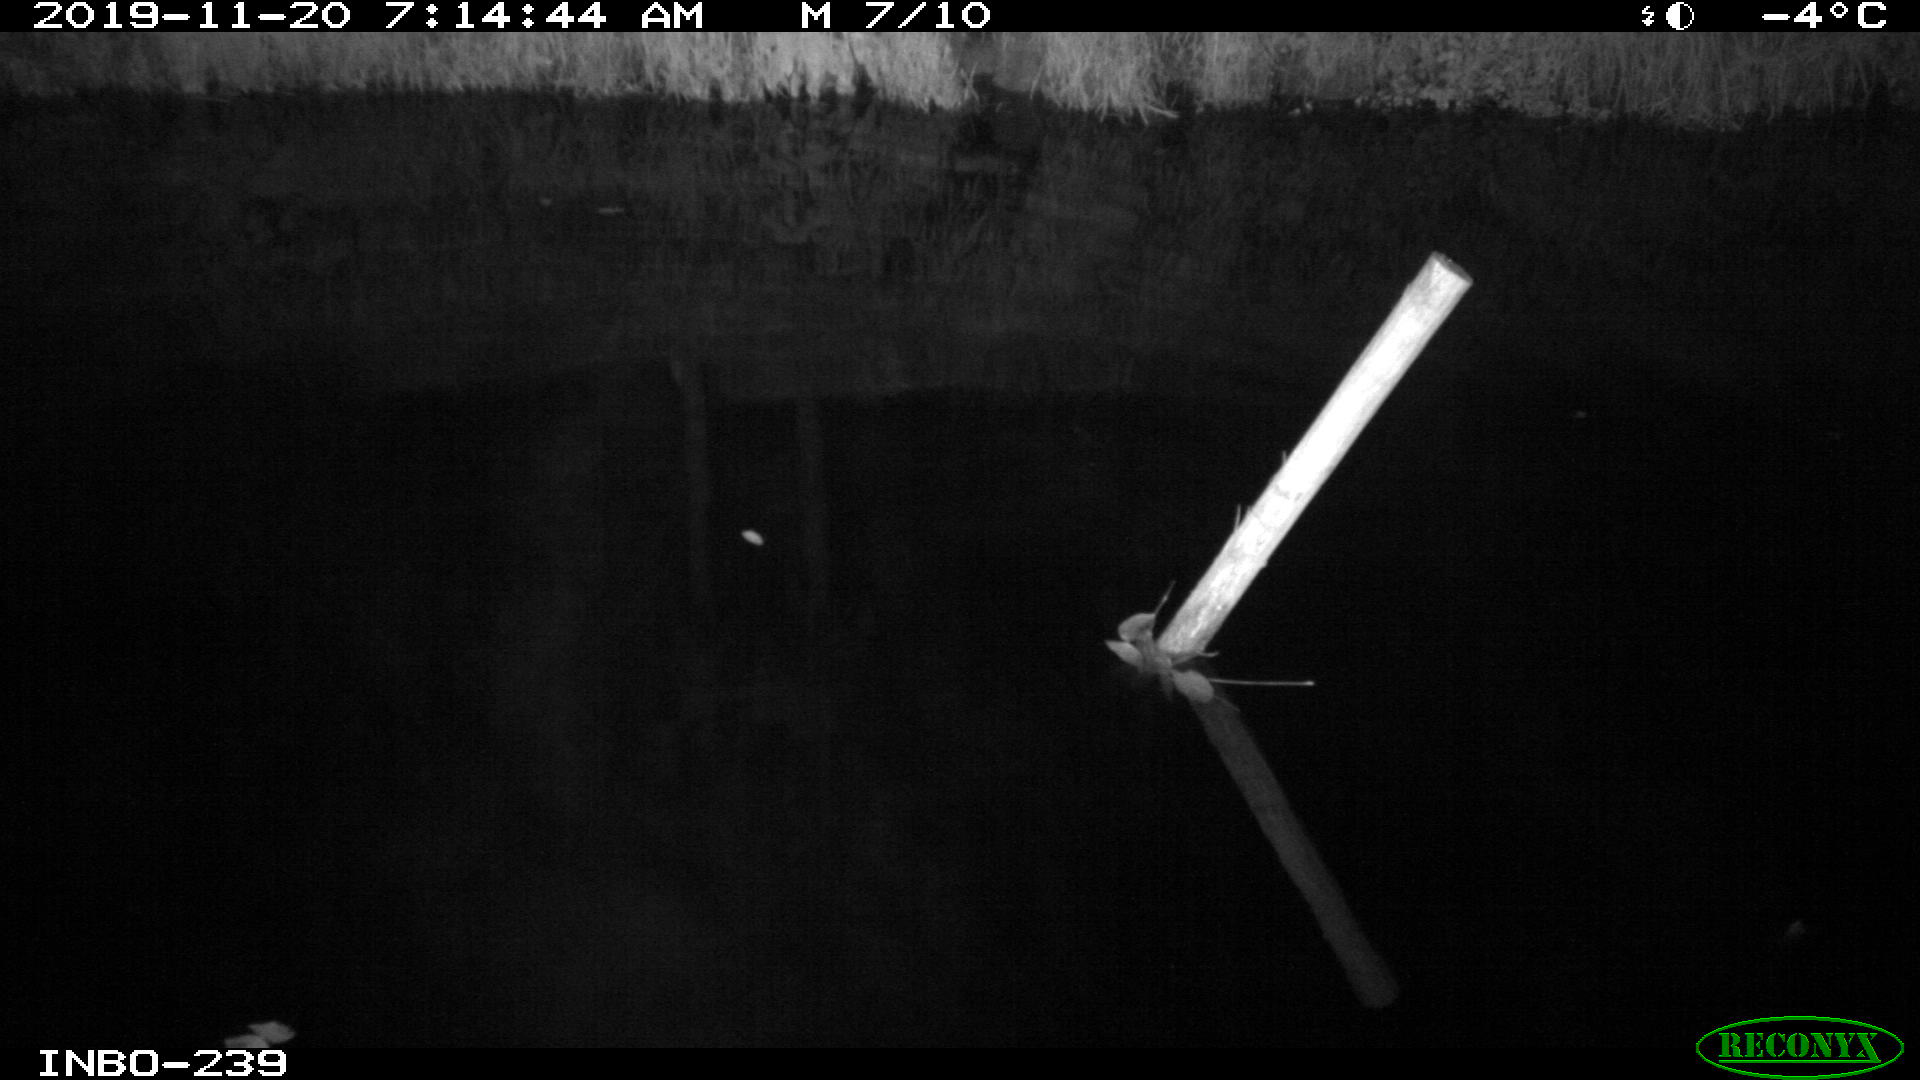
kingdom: Animalia
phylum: Chordata
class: Aves
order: Anseriformes
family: Anatidae
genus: Anas
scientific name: Anas platyrhynchos
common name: Mallard
